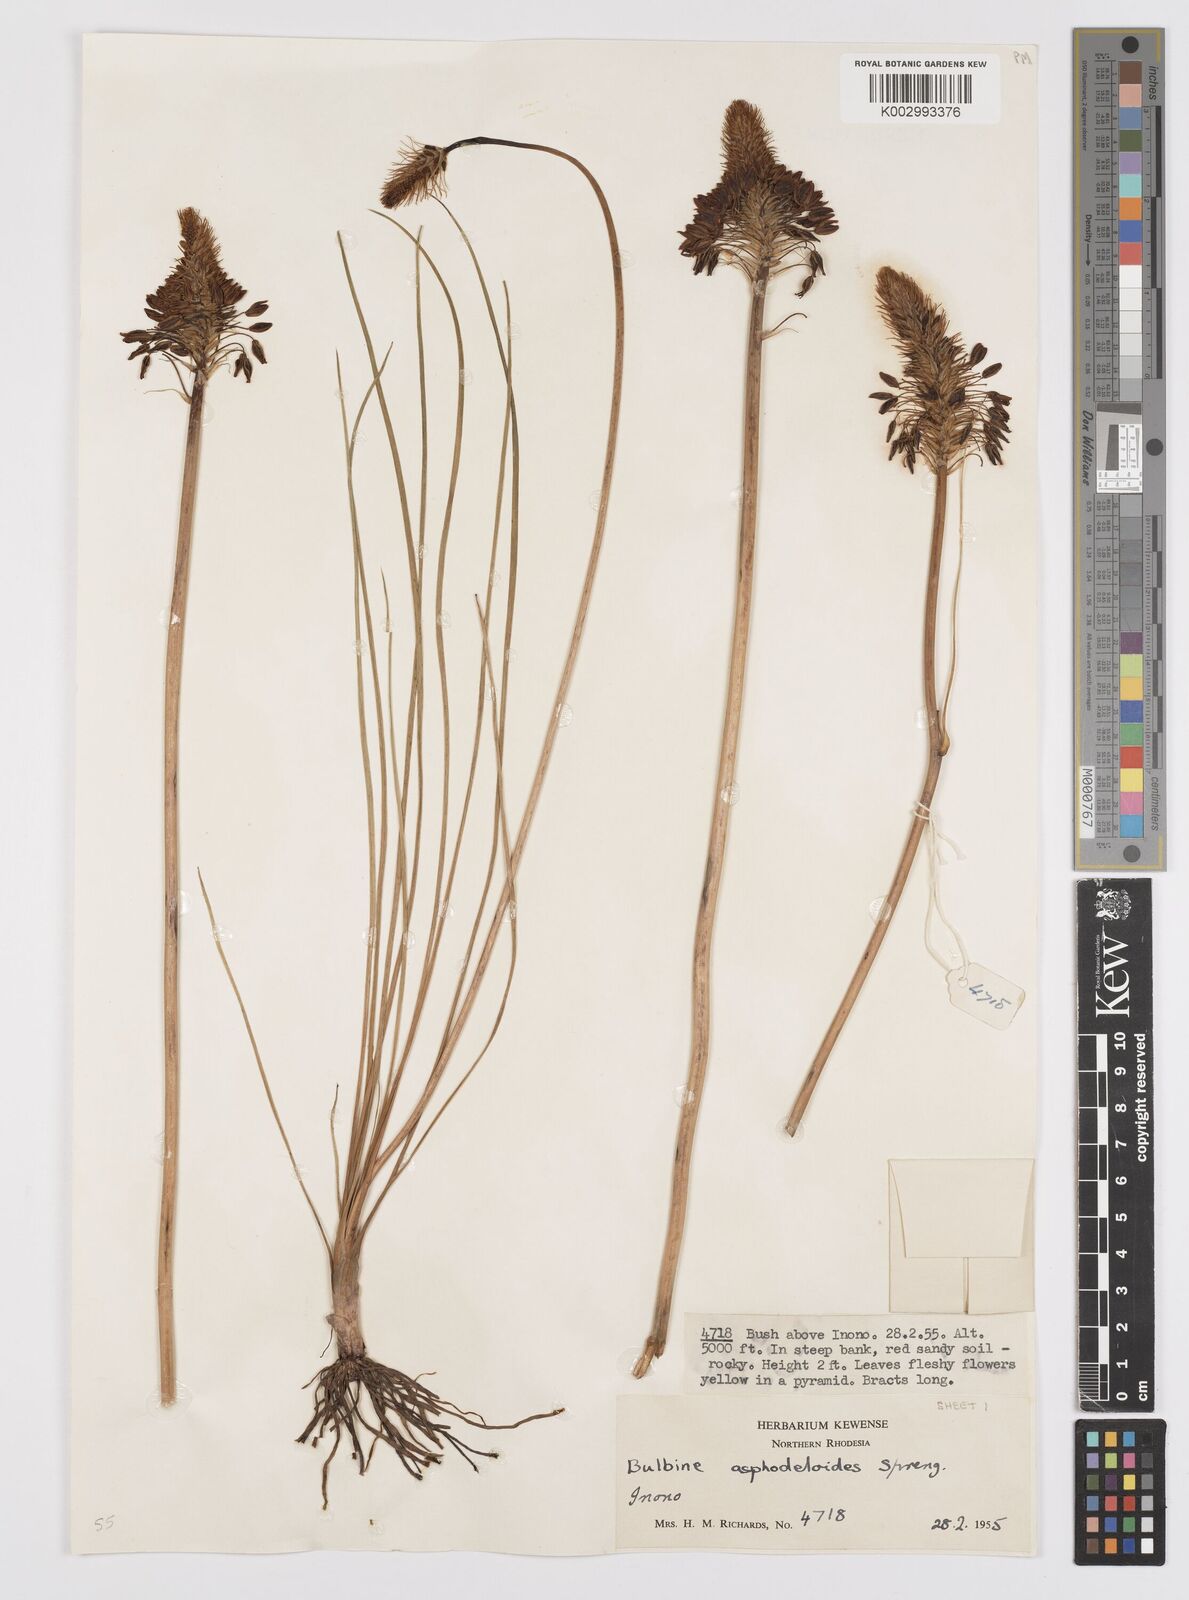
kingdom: Plantae
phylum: Tracheophyta
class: Liliopsida
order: Asparagales
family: Asphodelaceae
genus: Bulbine
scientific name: Bulbine abyssinica
